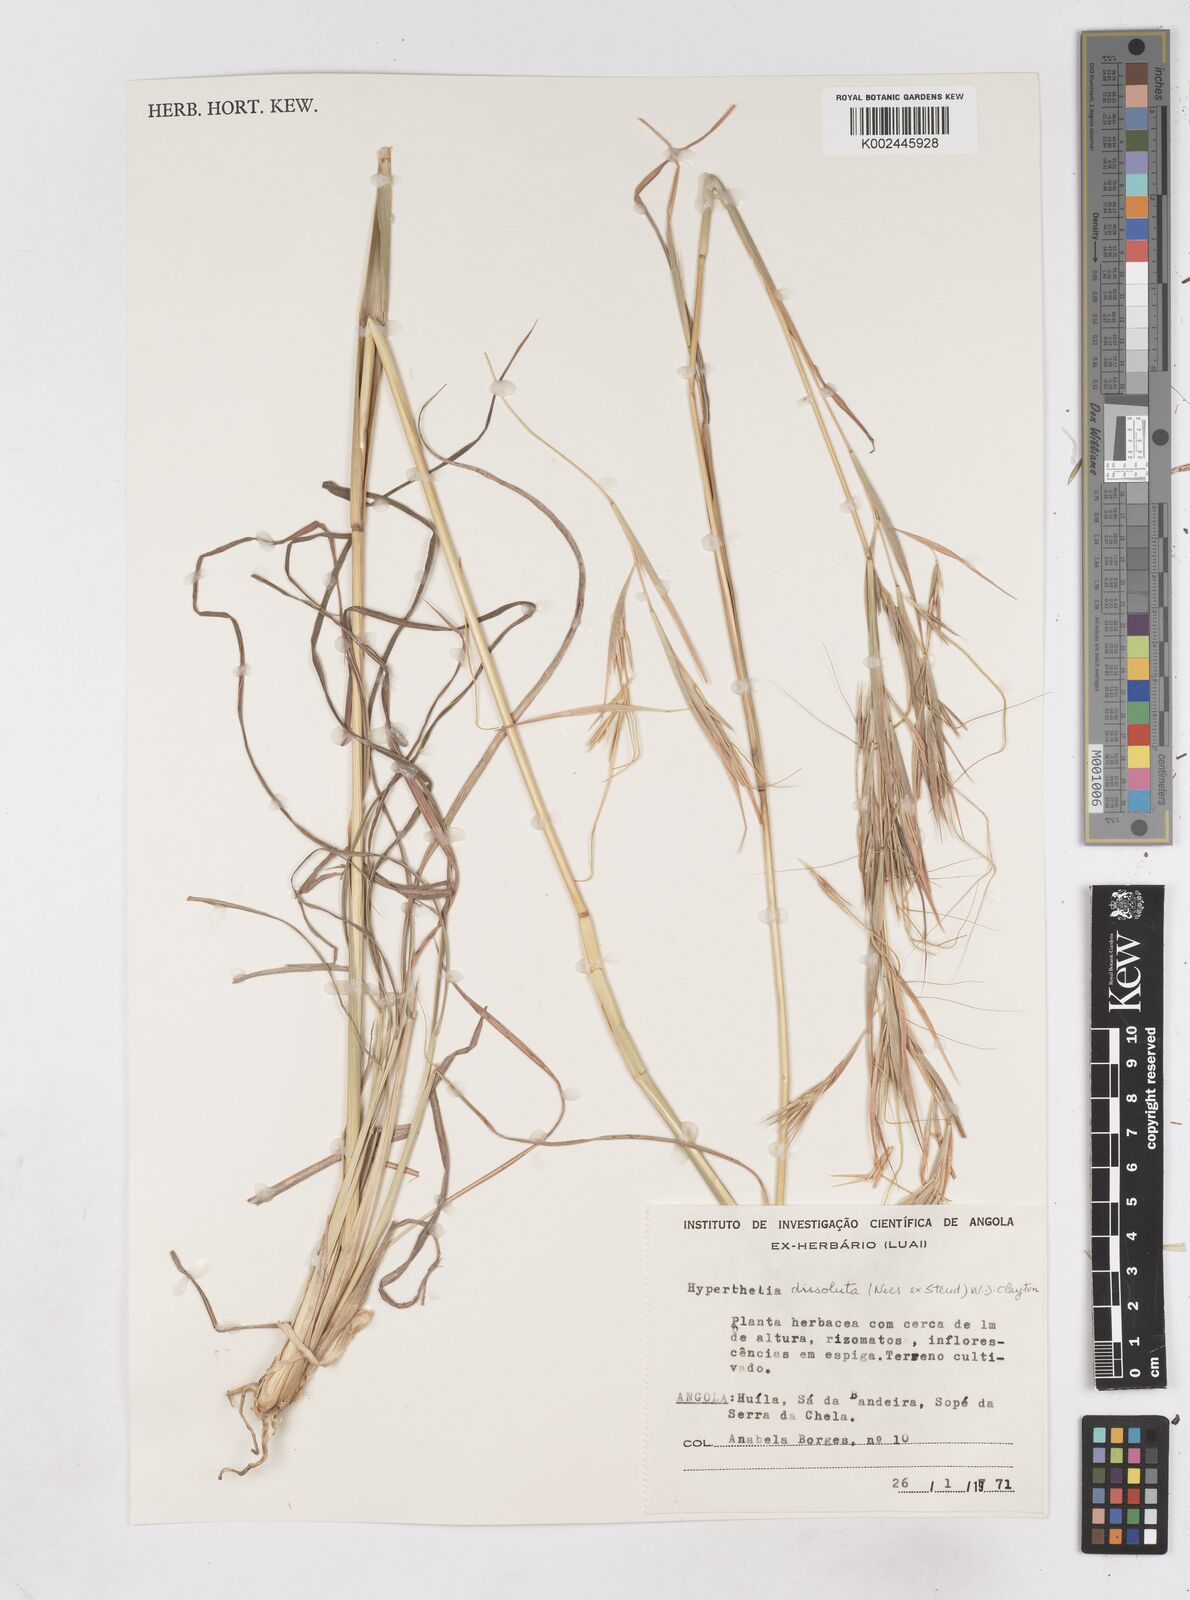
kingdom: Plantae
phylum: Tracheophyta
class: Liliopsida
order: Poales
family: Poaceae
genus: Hyperthelia
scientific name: Hyperthelia dissoluta
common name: Yellow thatching grass
